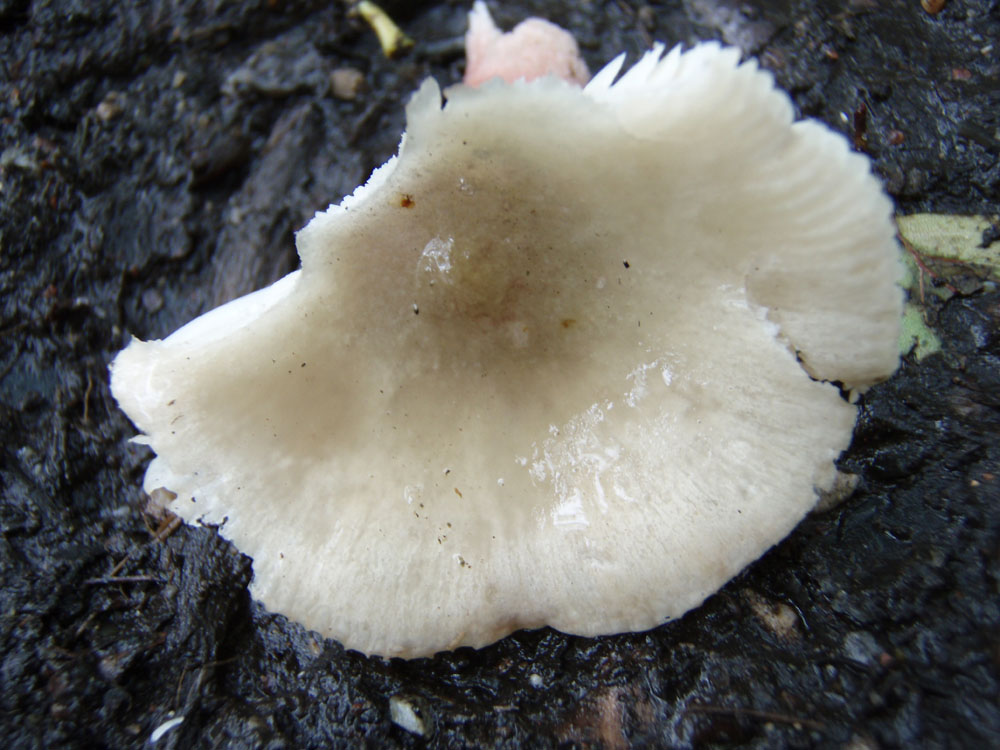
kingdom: Fungi
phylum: Basidiomycota
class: Agaricomycetes
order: Russulales
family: Russulaceae
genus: Russula
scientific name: Russula depallens
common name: falmende skørhat
